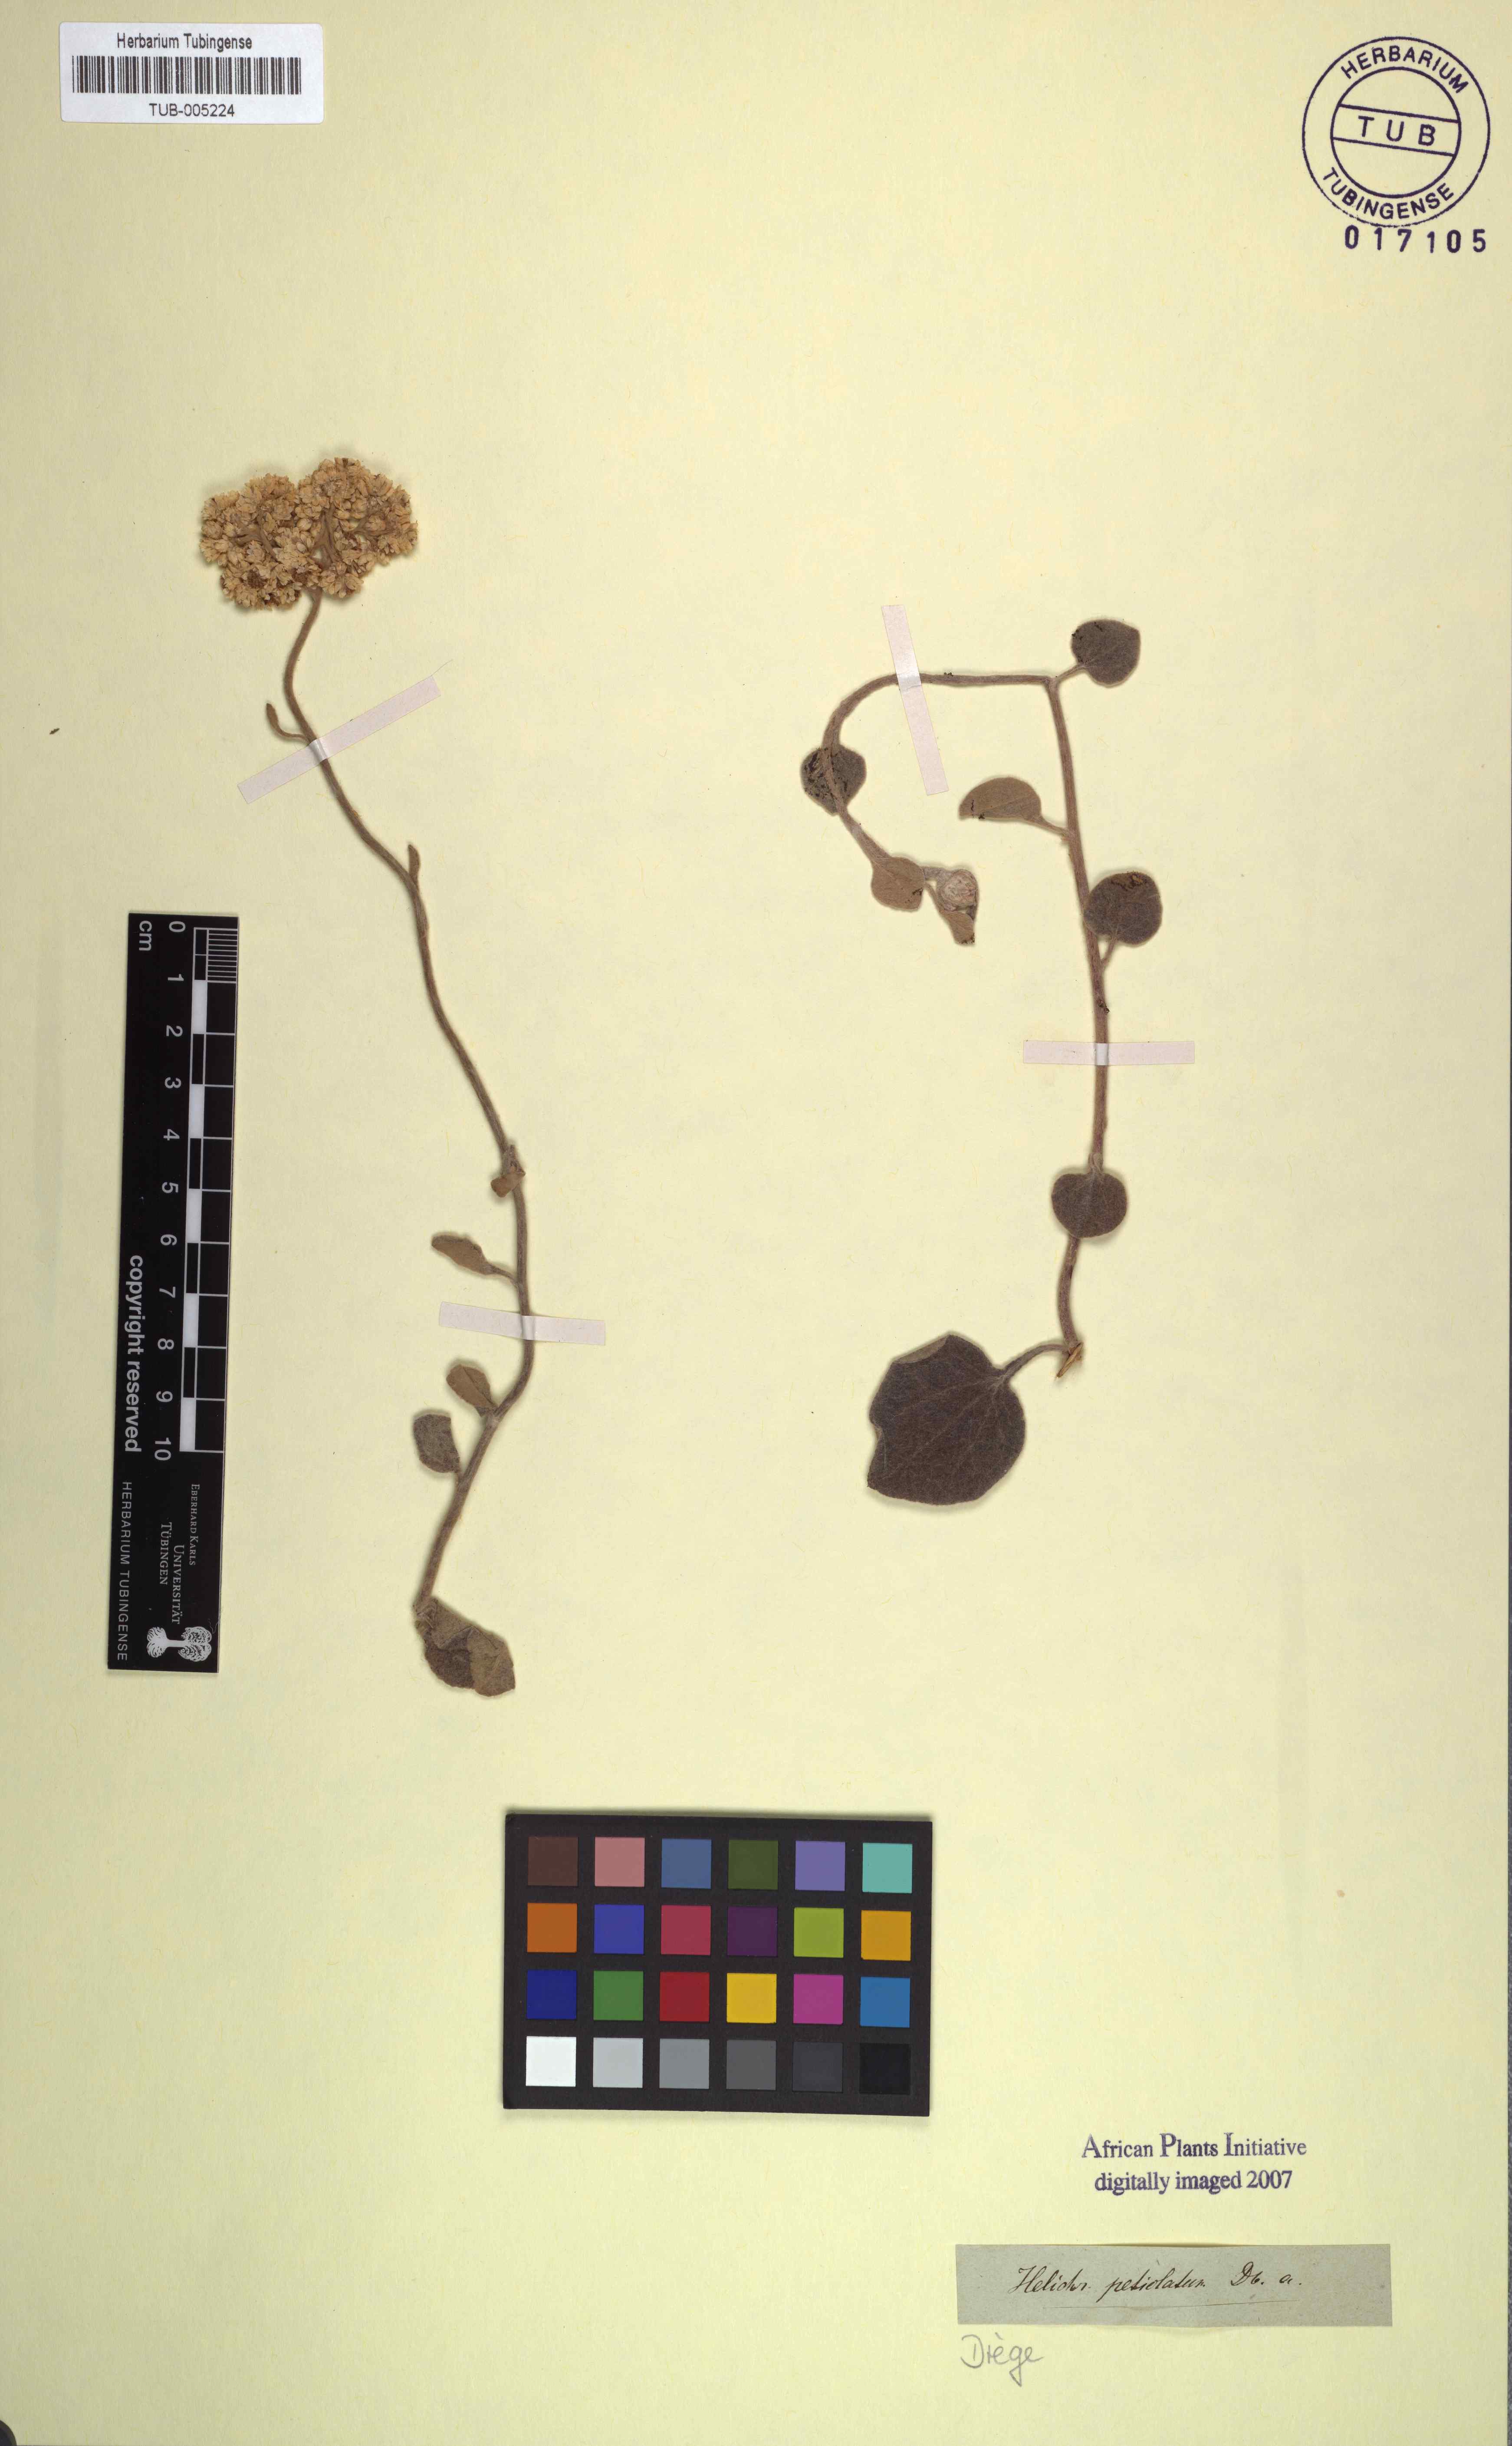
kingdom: Plantae
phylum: Tracheophyta
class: Magnoliopsida
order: Asterales
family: Asteraceae
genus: Helichrysum
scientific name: Helichrysum petiolare
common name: Licorice-plant
